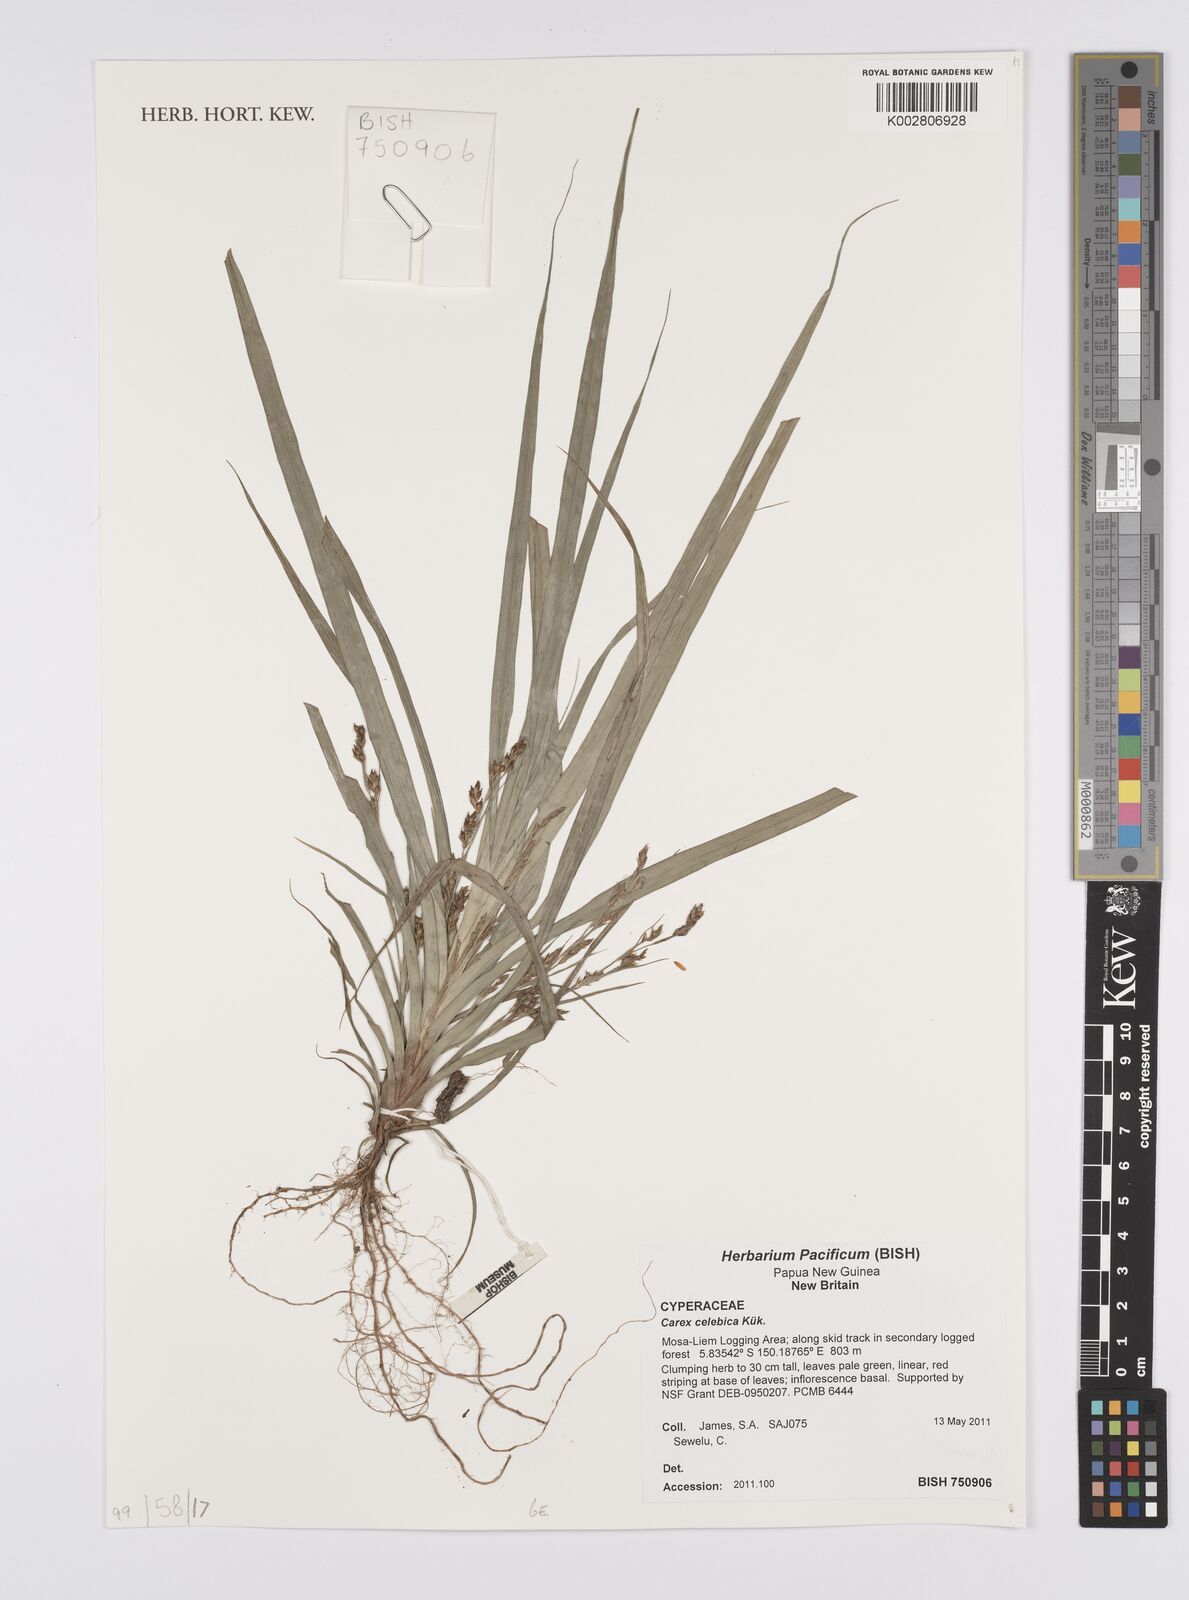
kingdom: Plantae
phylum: Tracheophyta
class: Liliopsida
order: Poales
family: Cyperaceae
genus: Carex
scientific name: Carex celebica
